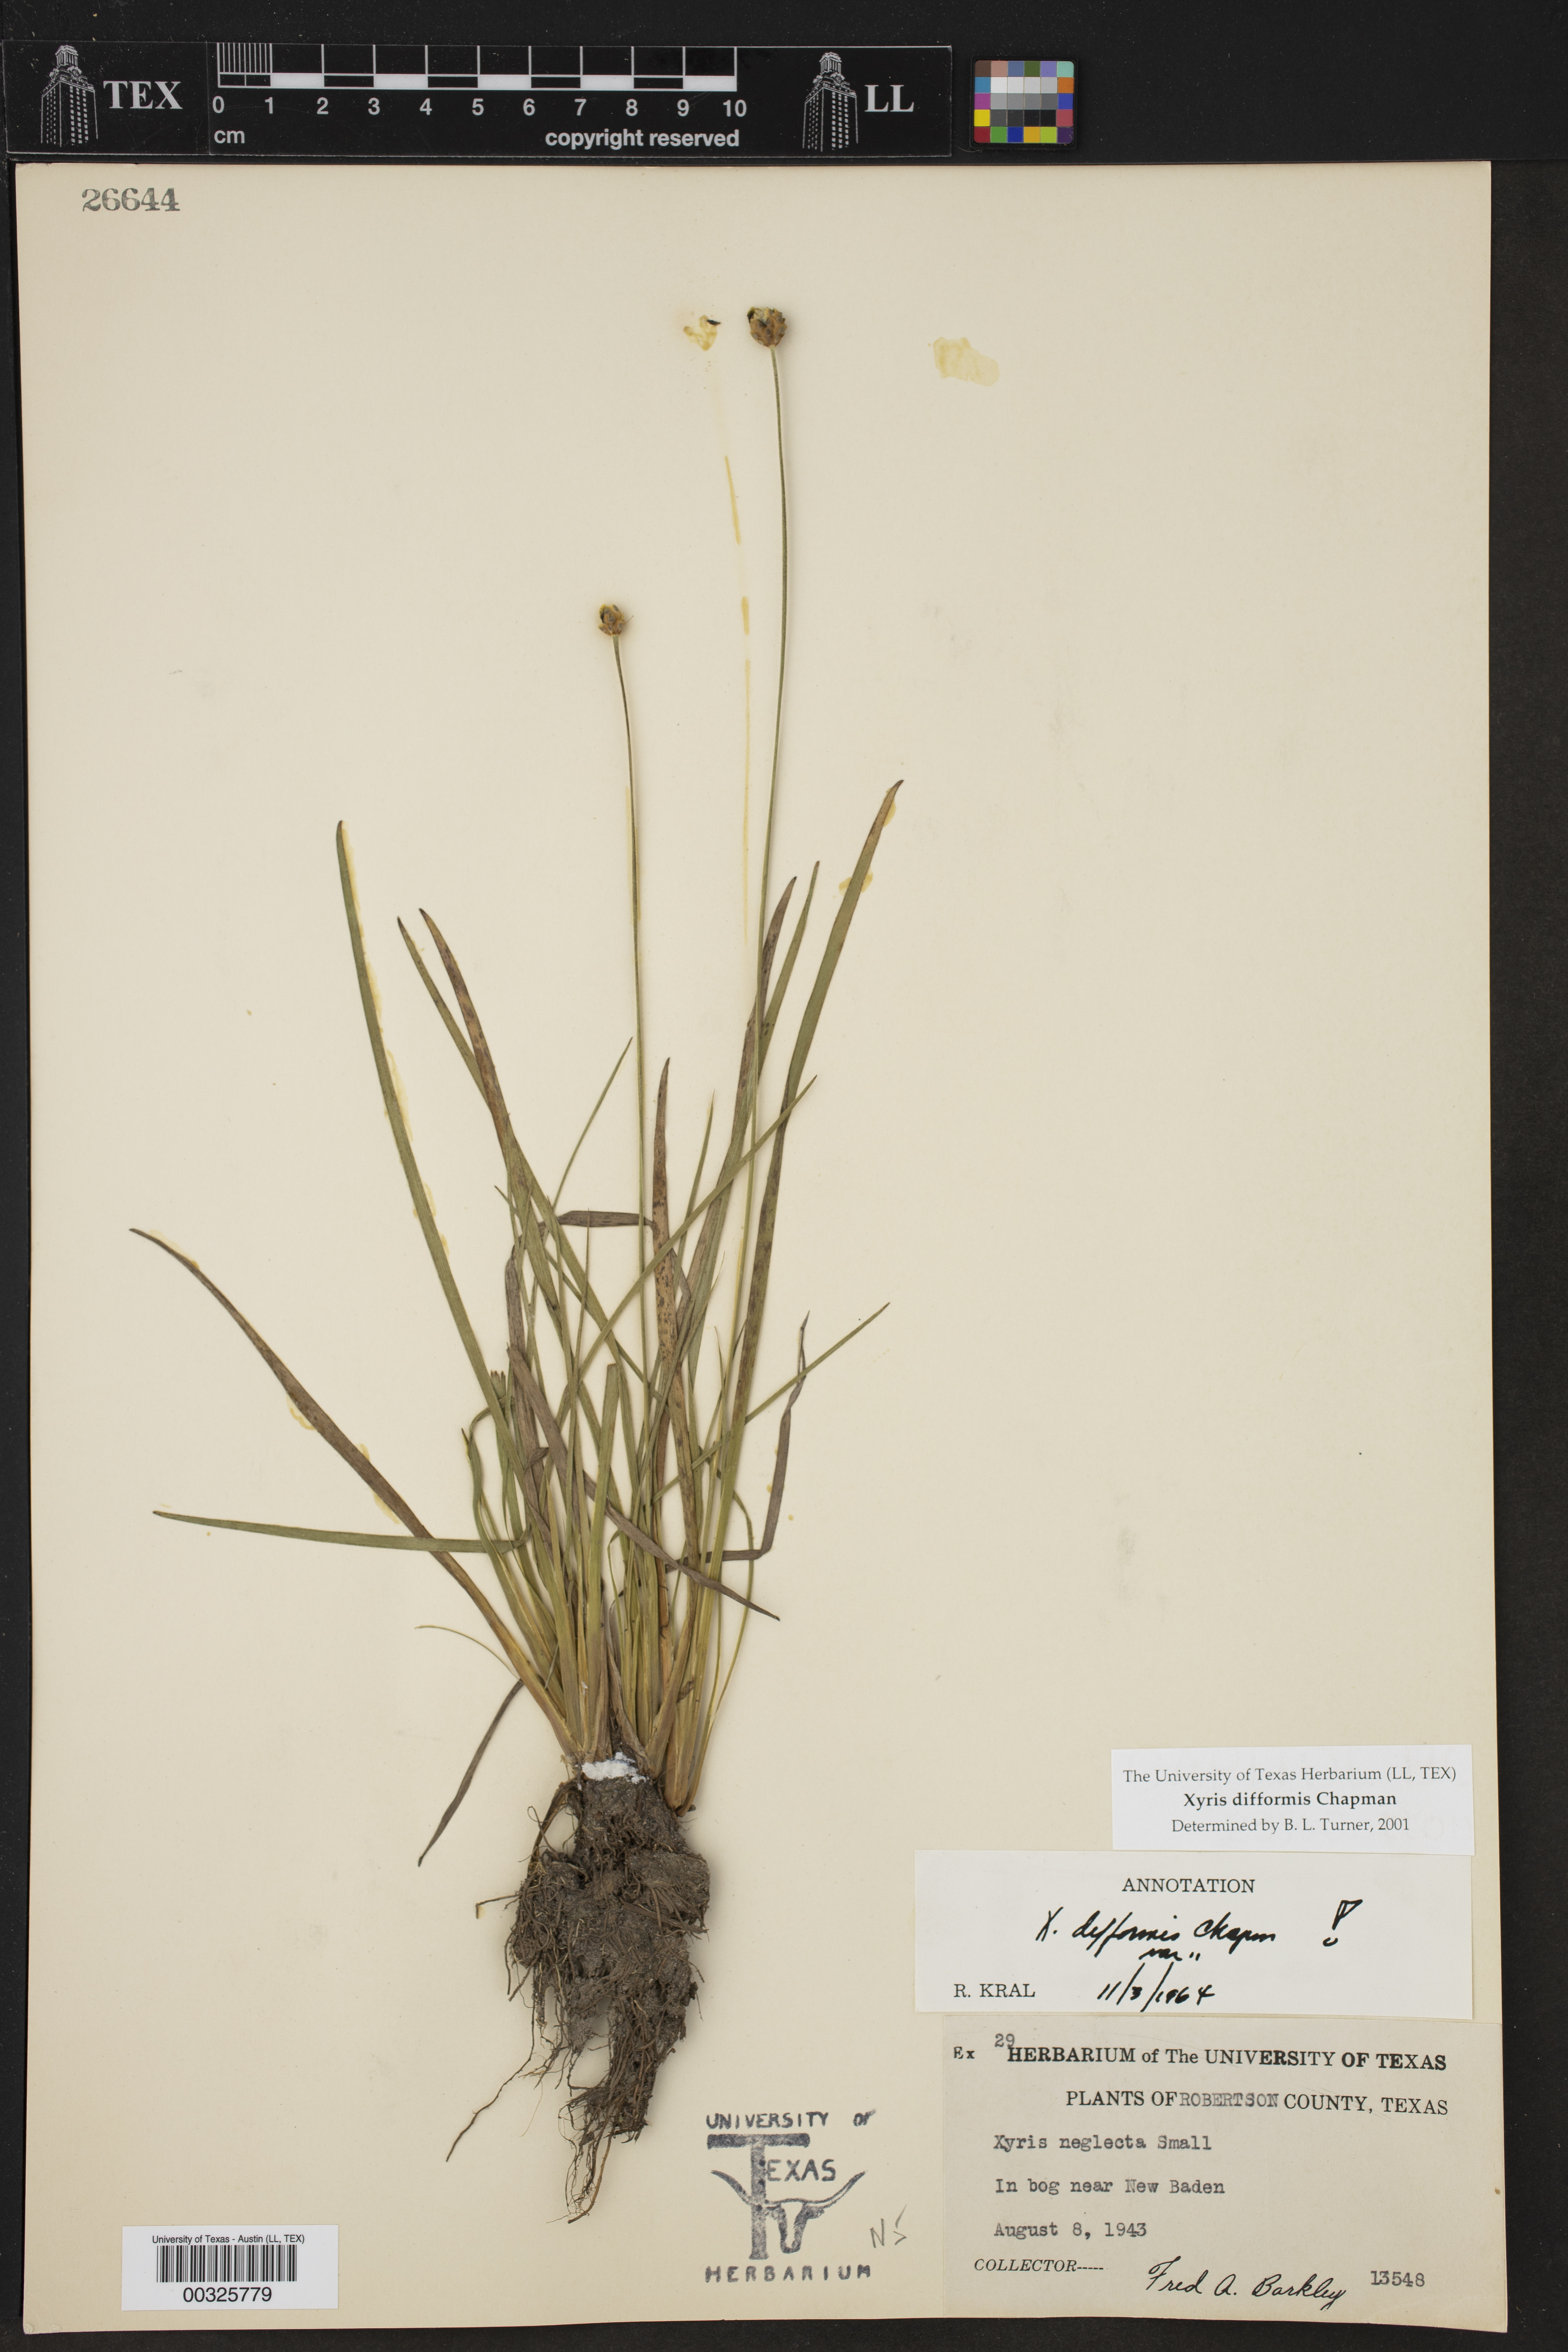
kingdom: Plantae
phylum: Tracheophyta
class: Liliopsida
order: Poales
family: Xyridaceae
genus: Xyris
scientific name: Xyris difformis
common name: Bog yellow-eyed-grass
